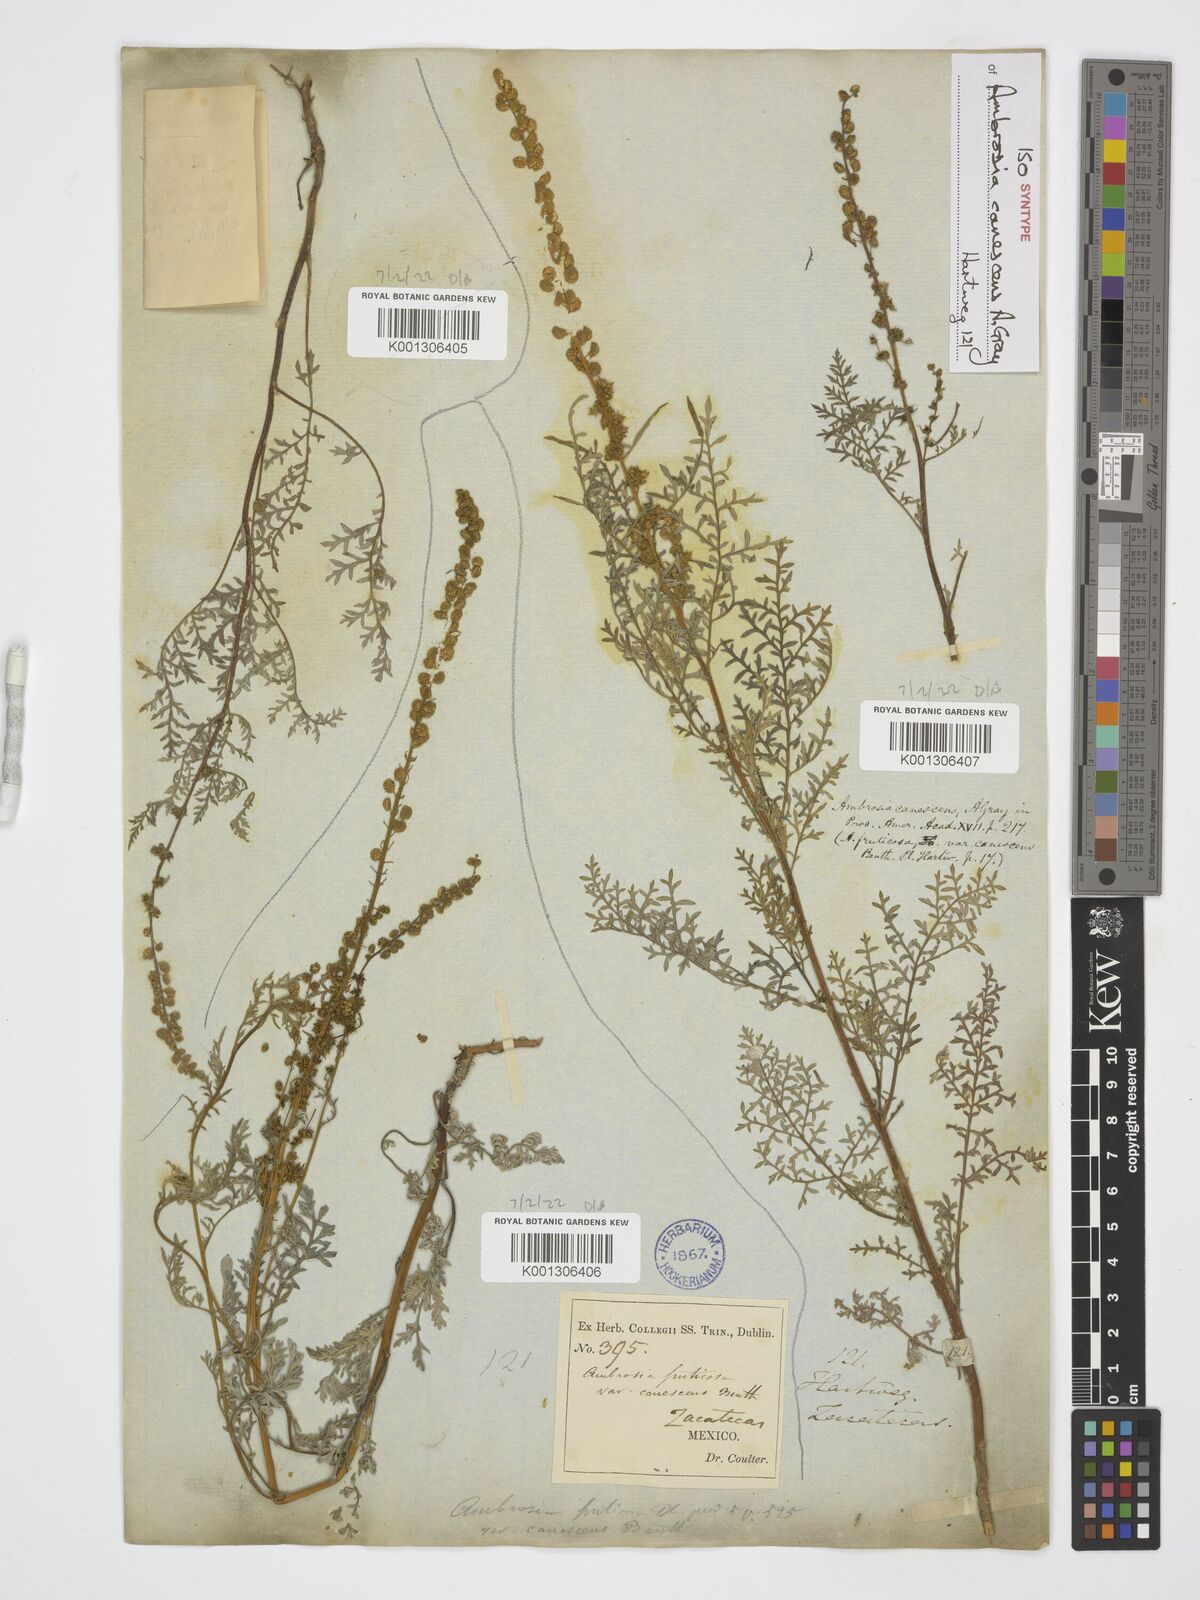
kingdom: Plantae
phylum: Tracheophyta
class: Magnoliopsida
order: Asterales
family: Asteraceae
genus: Ambrosia
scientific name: Ambrosia canescens
